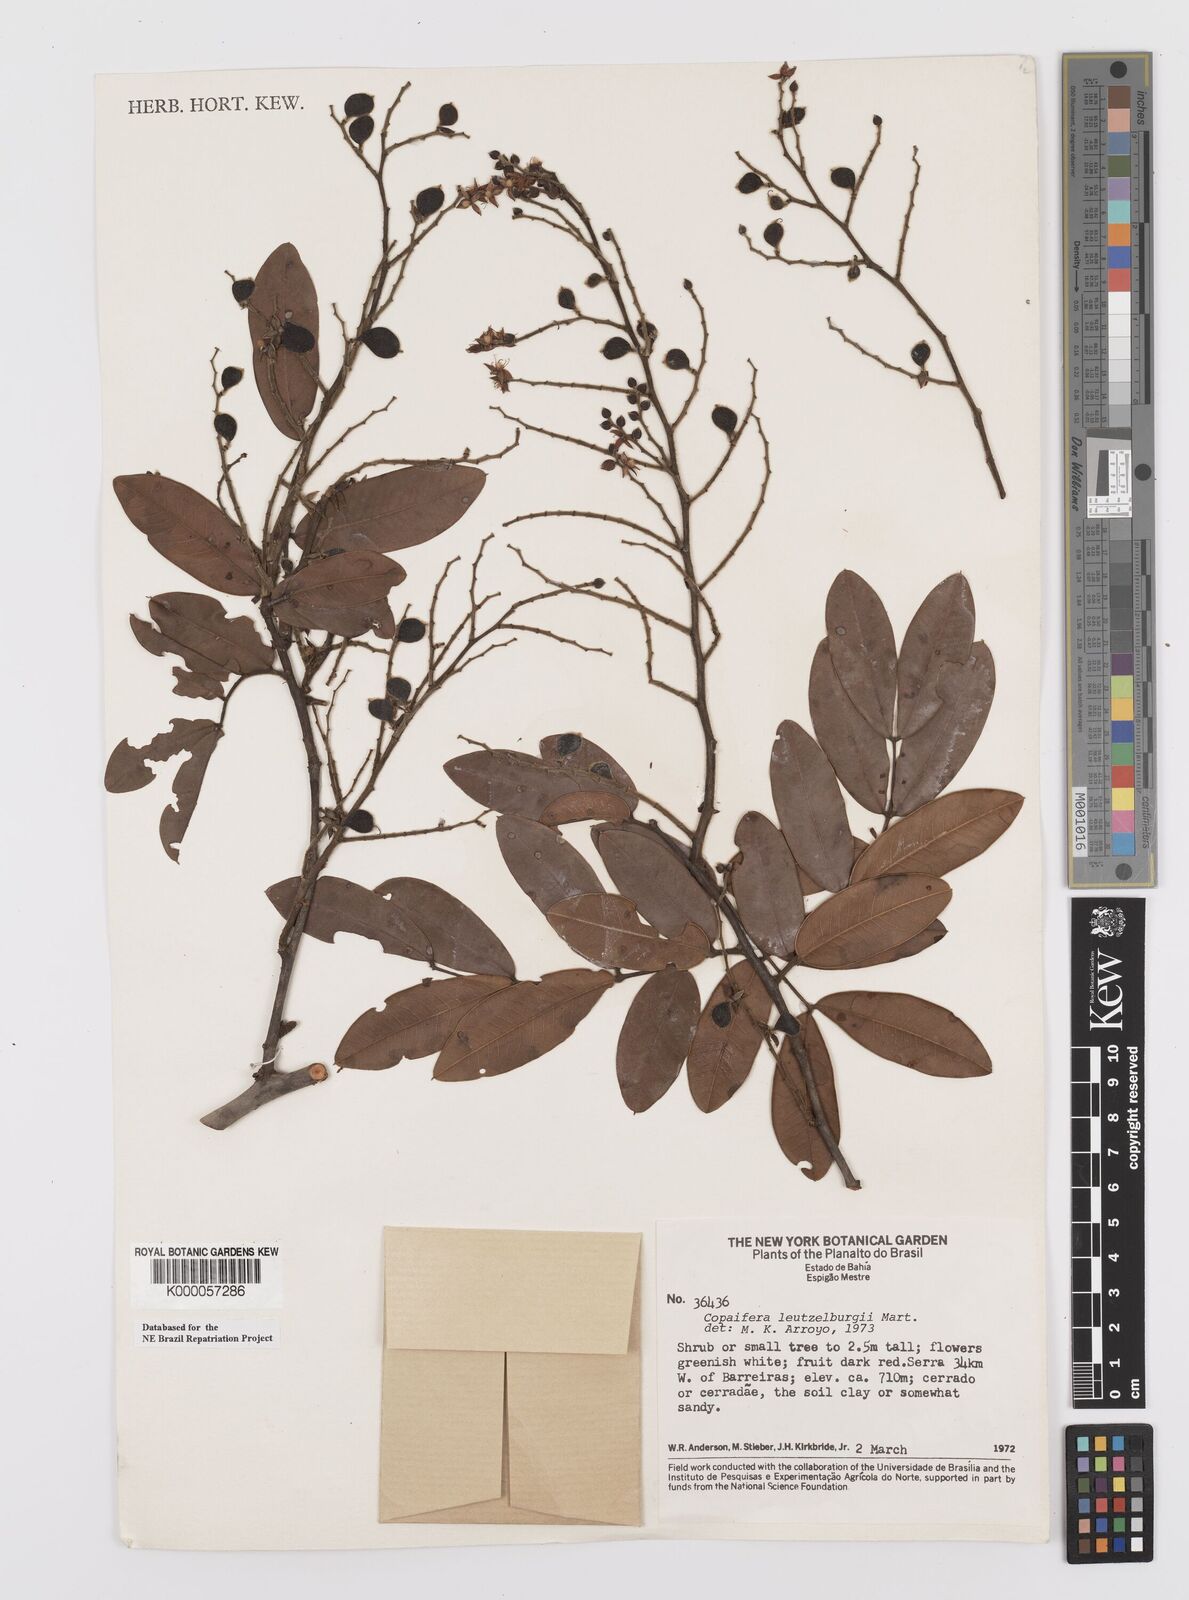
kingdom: Plantae
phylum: Tracheophyta
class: Magnoliopsida
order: Fabales
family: Fabaceae
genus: Copaifera
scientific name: Copaifera luetzelburgii
